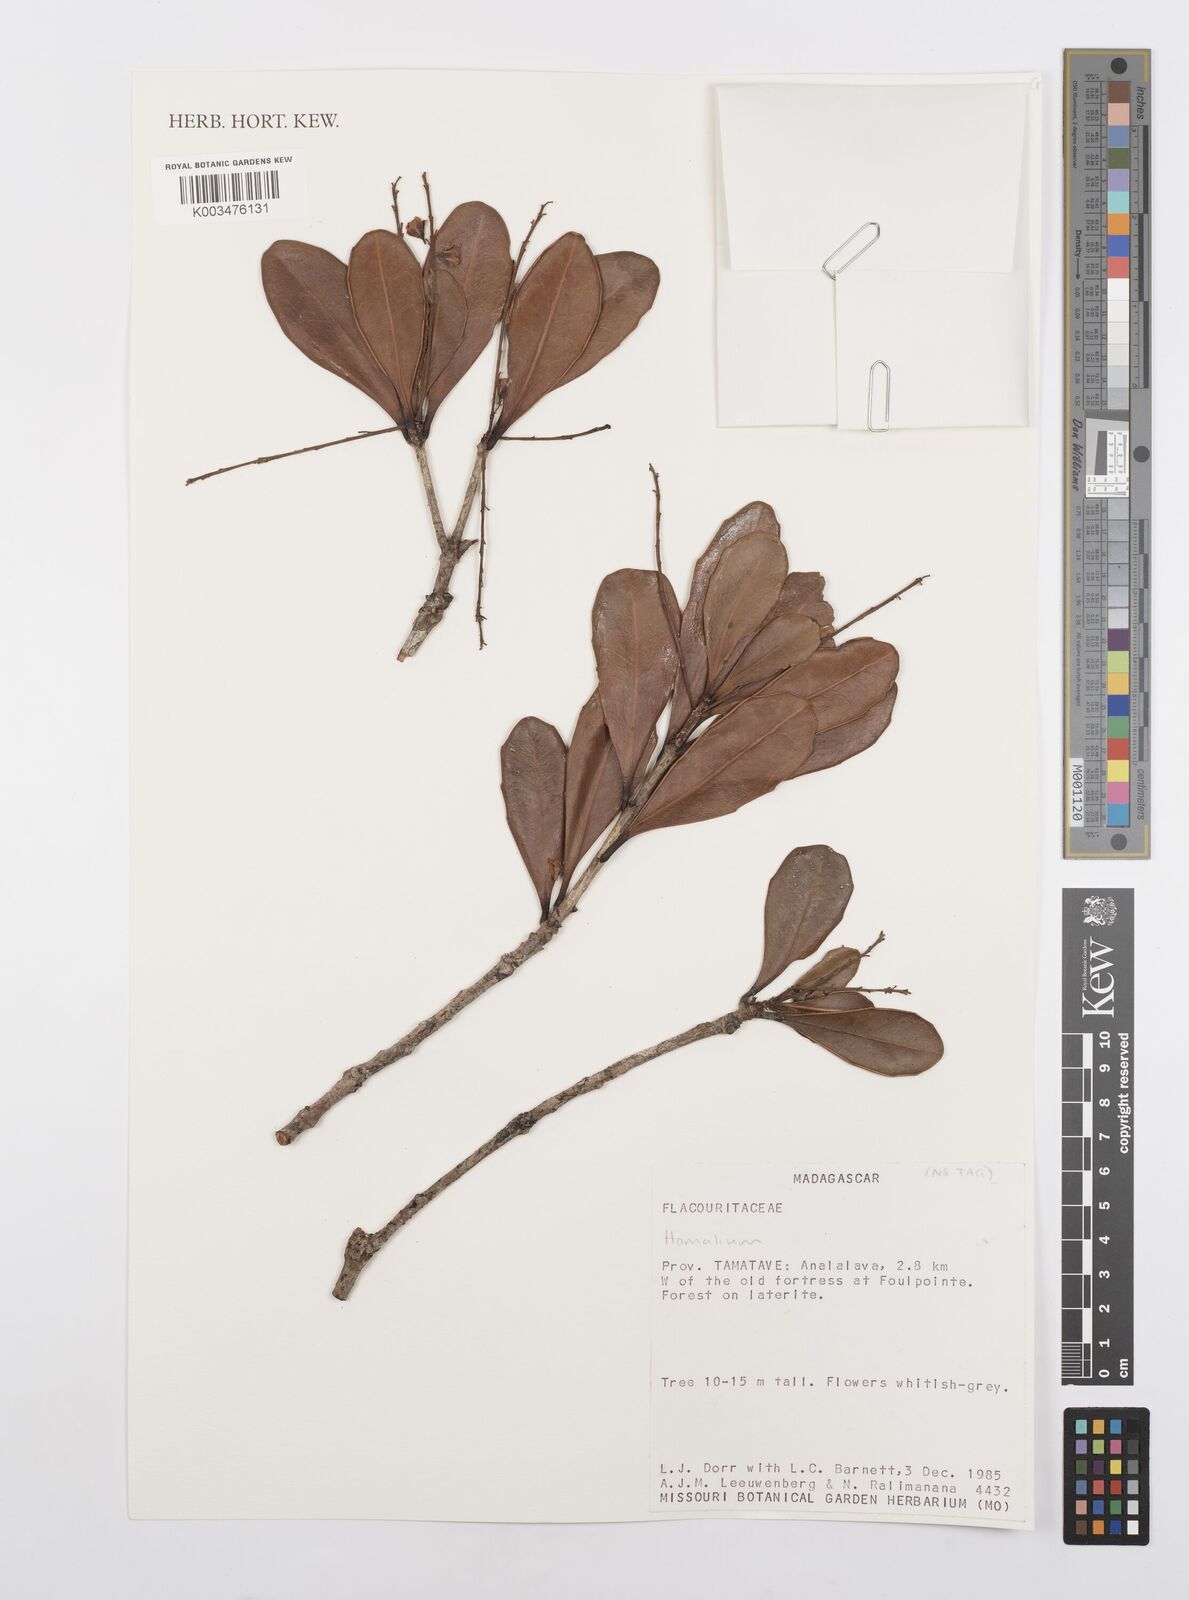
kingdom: Plantae
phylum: Tracheophyta
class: Magnoliopsida
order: Malpighiales
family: Salicaceae
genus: Homalium
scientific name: Homalium
